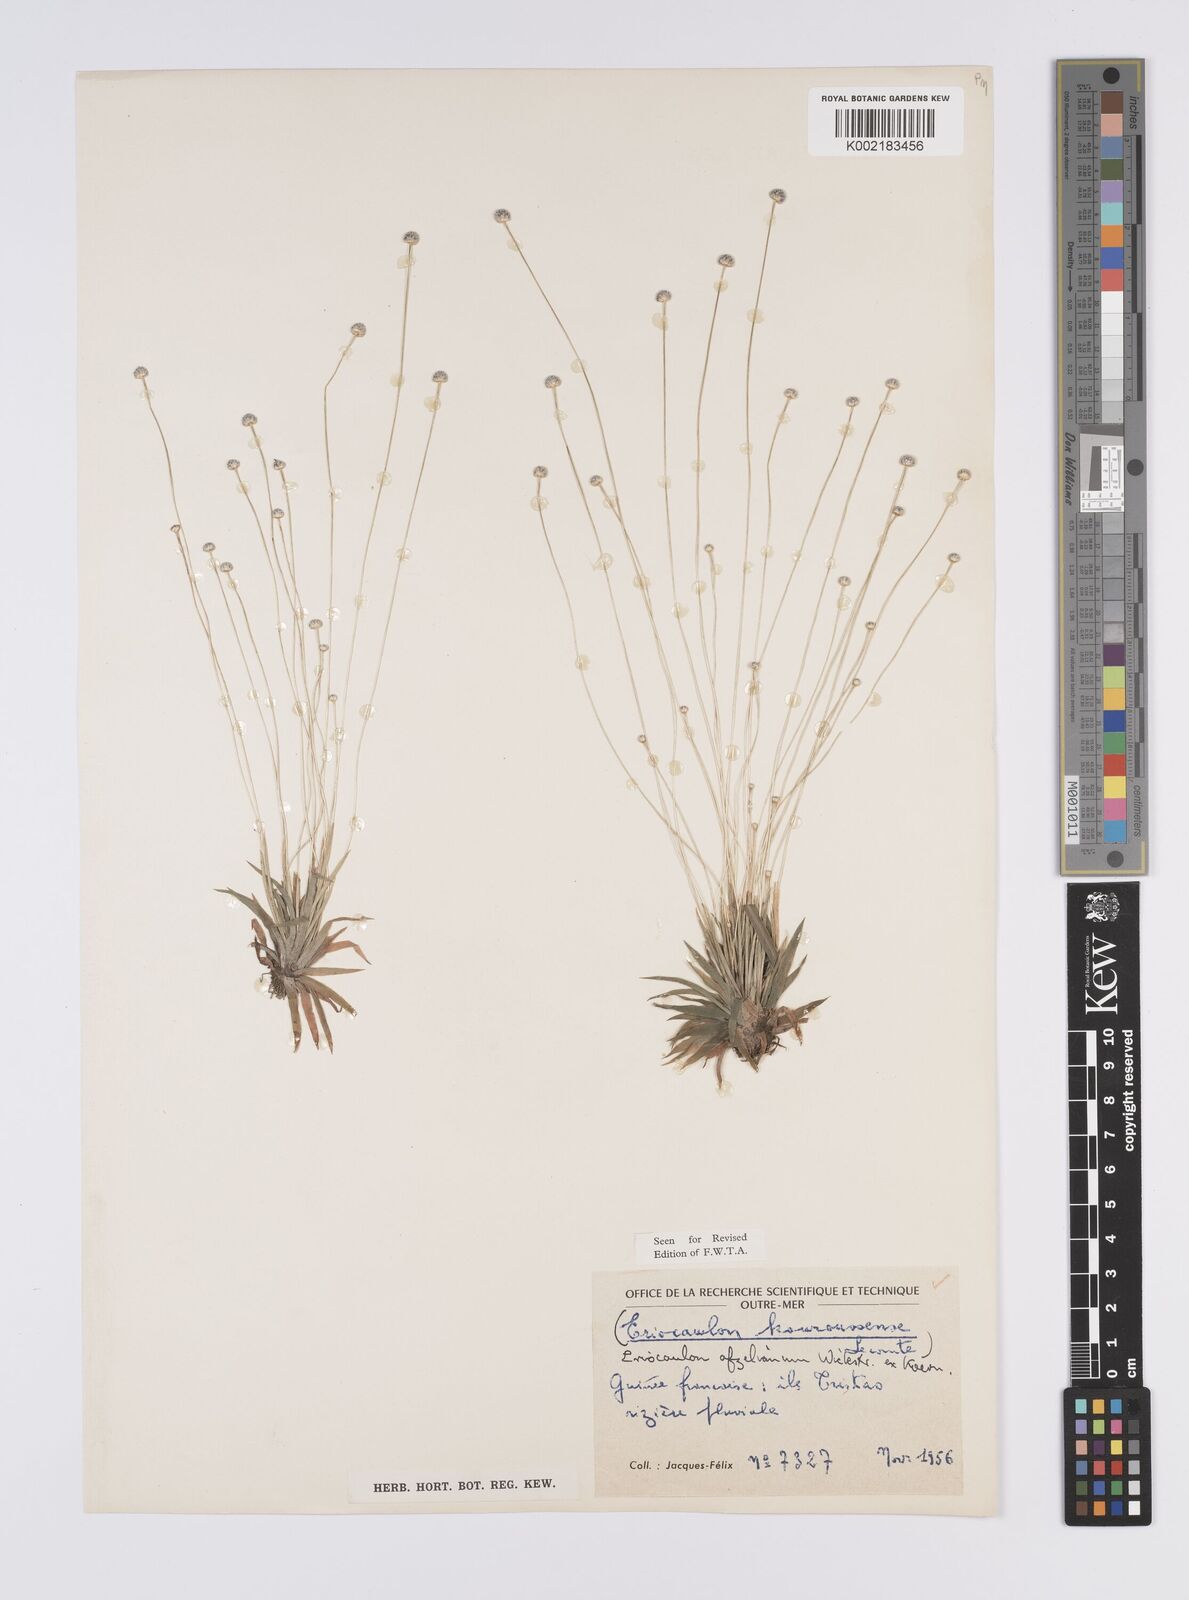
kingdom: Plantae
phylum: Tracheophyta
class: Liliopsida
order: Poales
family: Eriocaulaceae
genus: Eriocaulon
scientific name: Eriocaulon afzelianum
